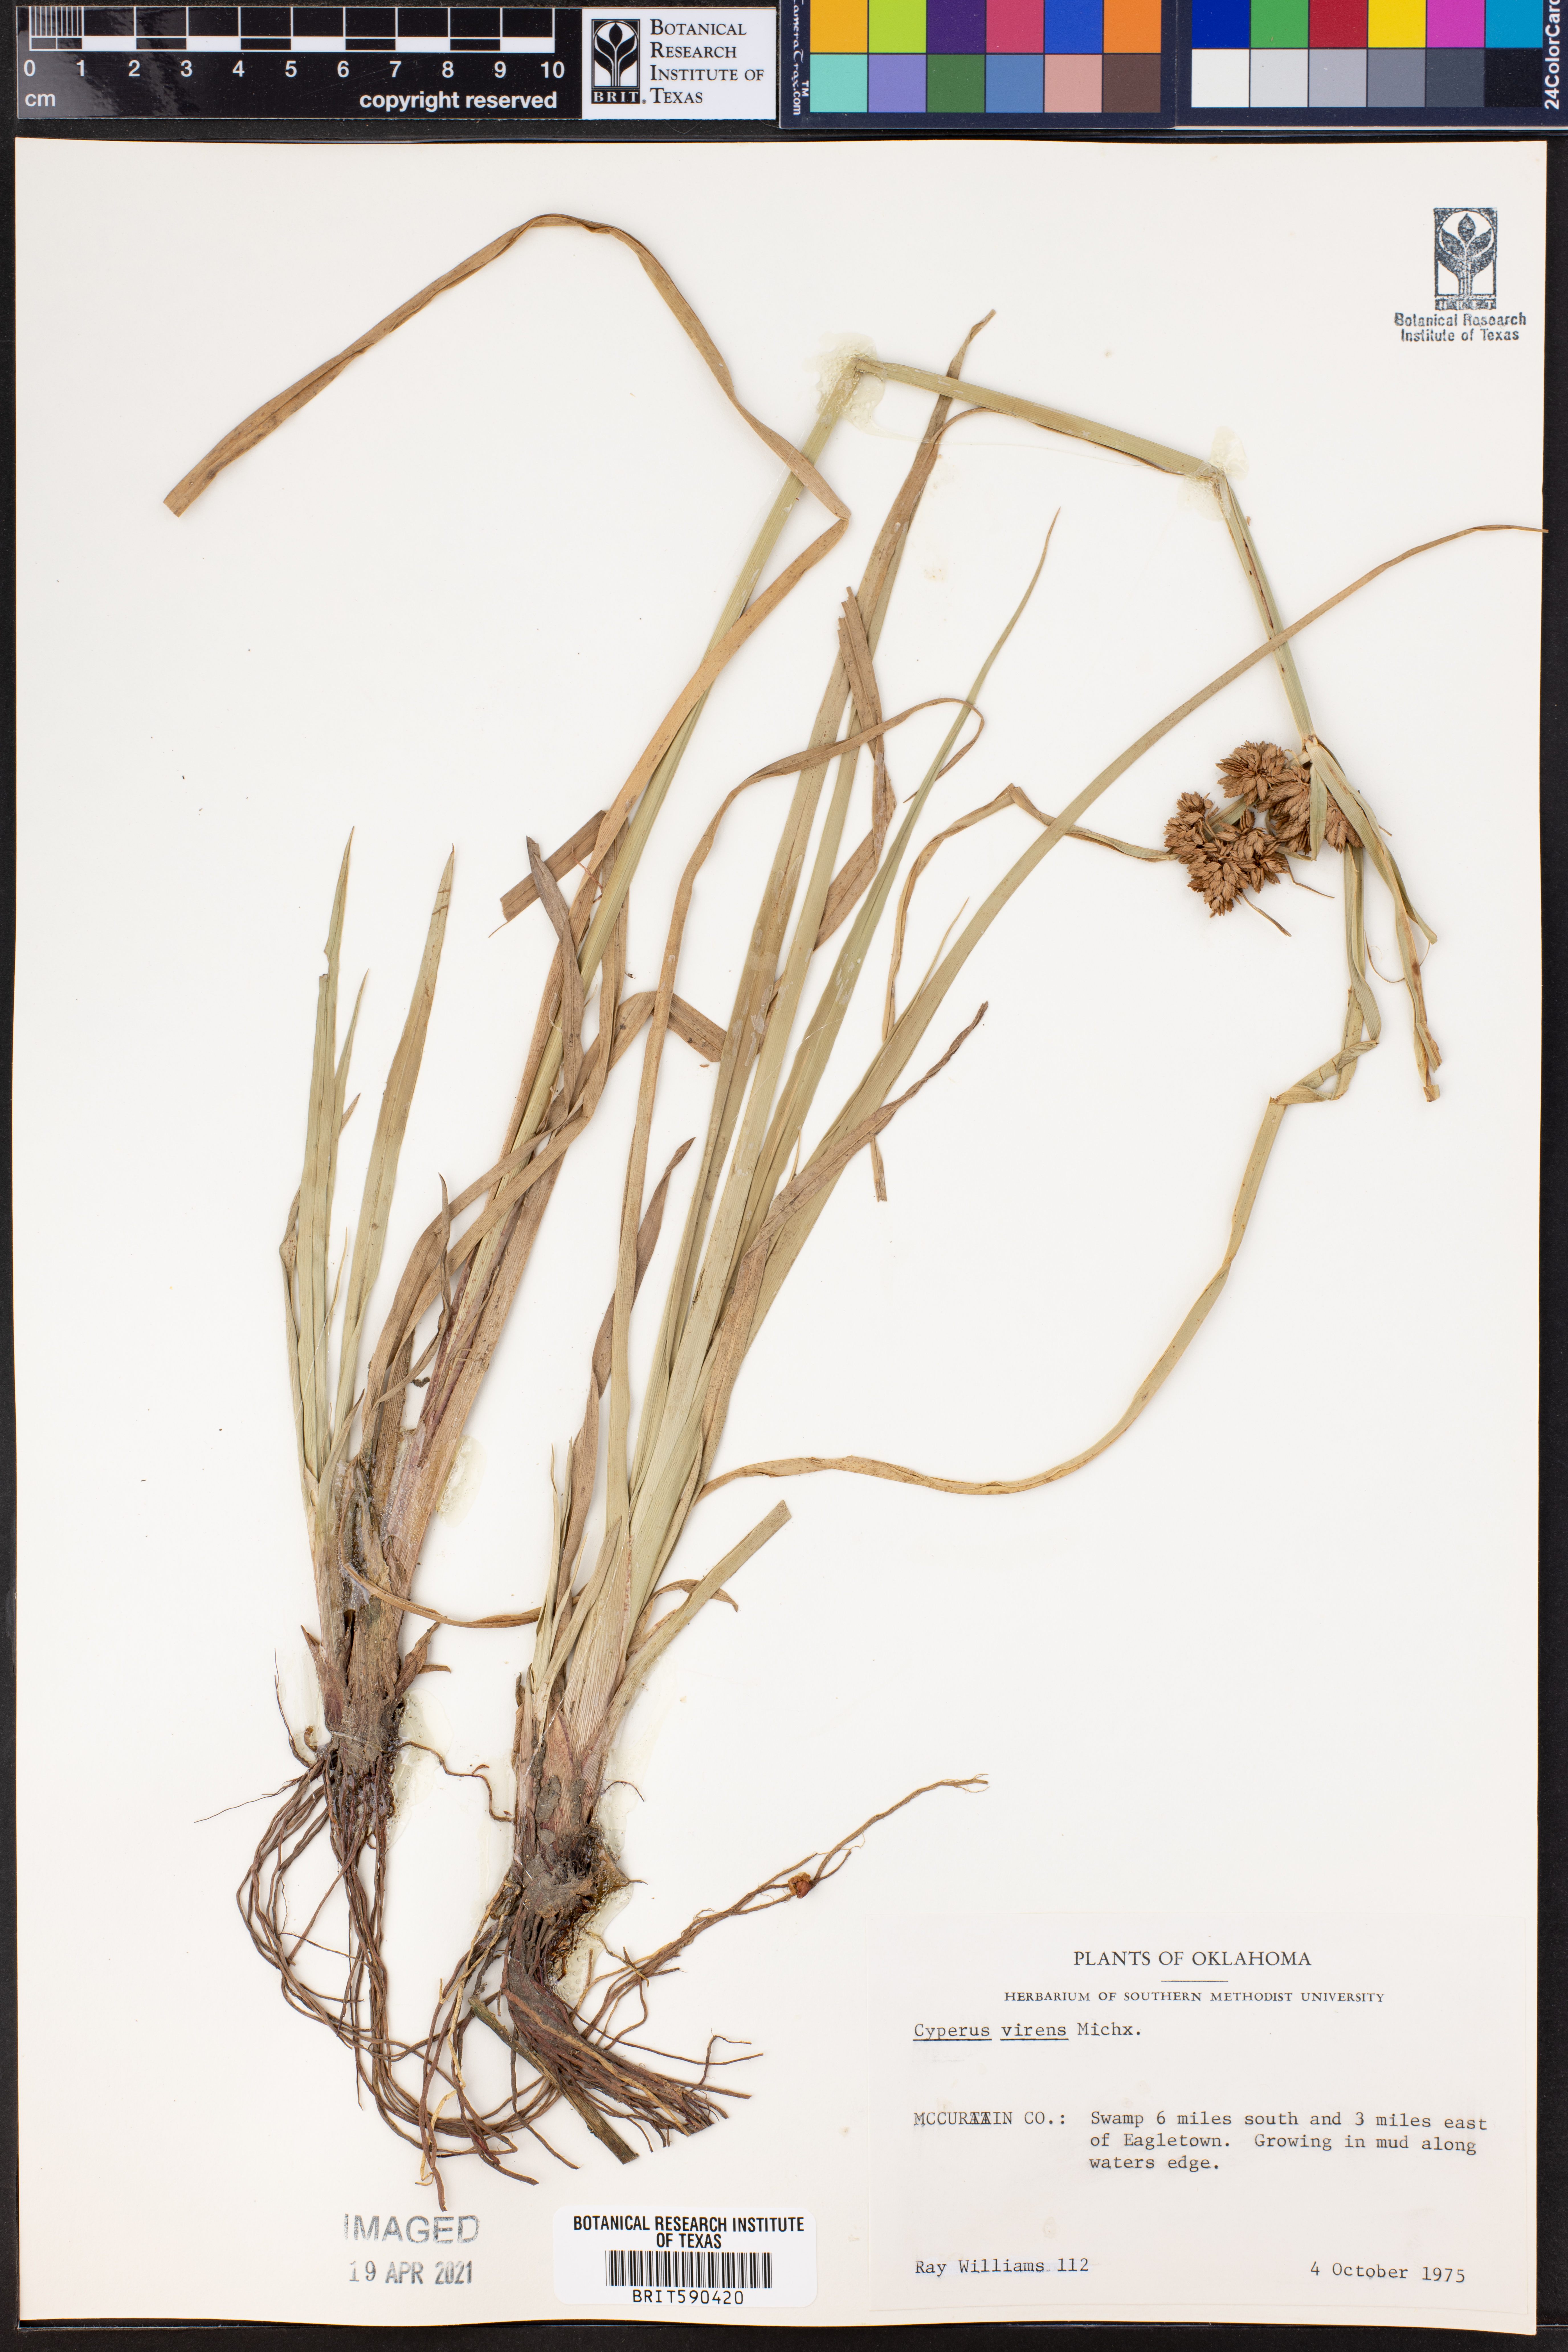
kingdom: Plantae
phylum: Tracheophyta
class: Liliopsida
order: Poales
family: Cyperaceae
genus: Cyperus
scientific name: Cyperus virens
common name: Green flatsedge
